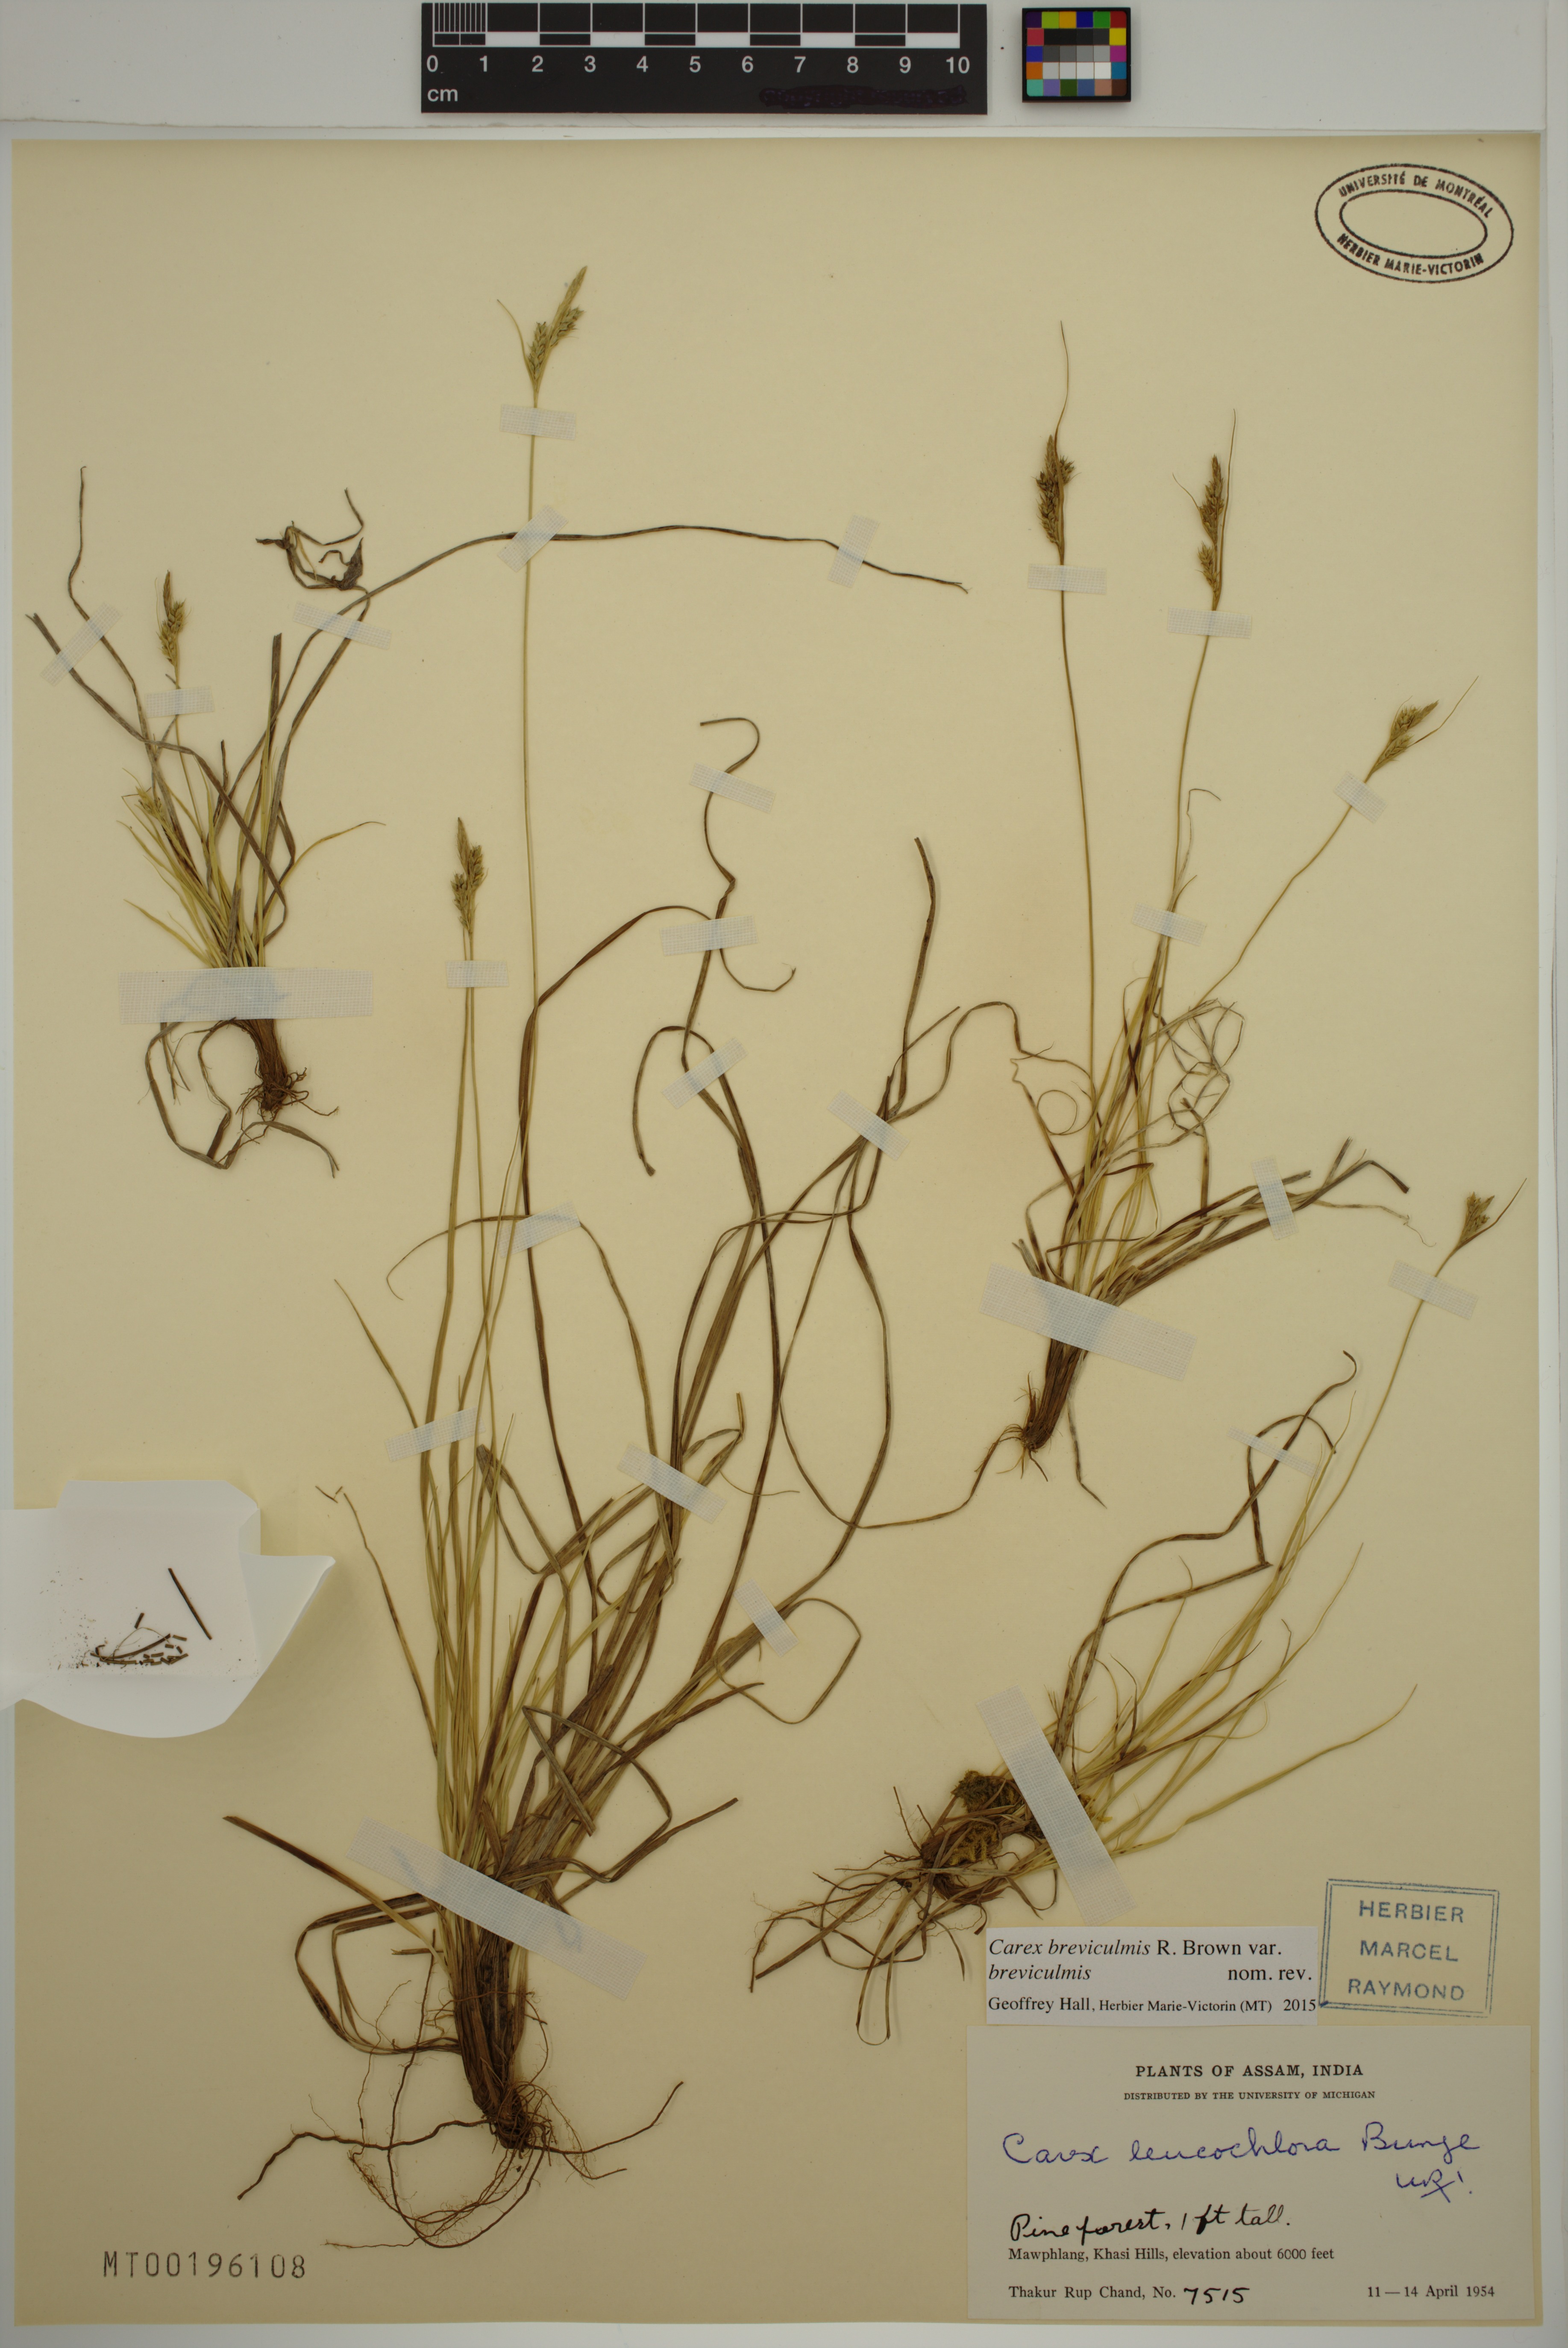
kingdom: Plantae
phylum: Tracheophyta
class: Liliopsida
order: Poales
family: Cyperaceae
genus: Carex
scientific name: Carex breviculmis
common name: Asian shortstem sedge
